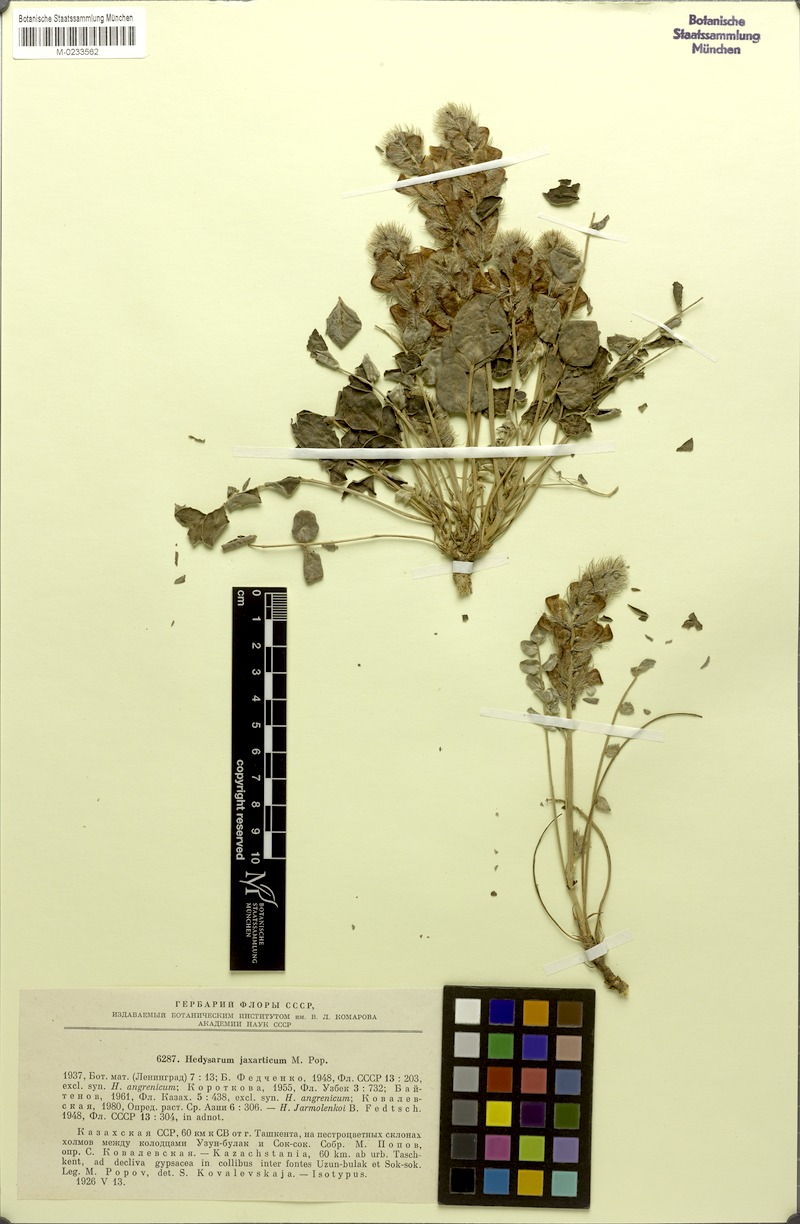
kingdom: Plantae
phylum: Tracheophyta
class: Magnoliopsida
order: Fabales
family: Fabaceae
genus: Hedysarum
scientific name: Hedysarum jaxarticum
